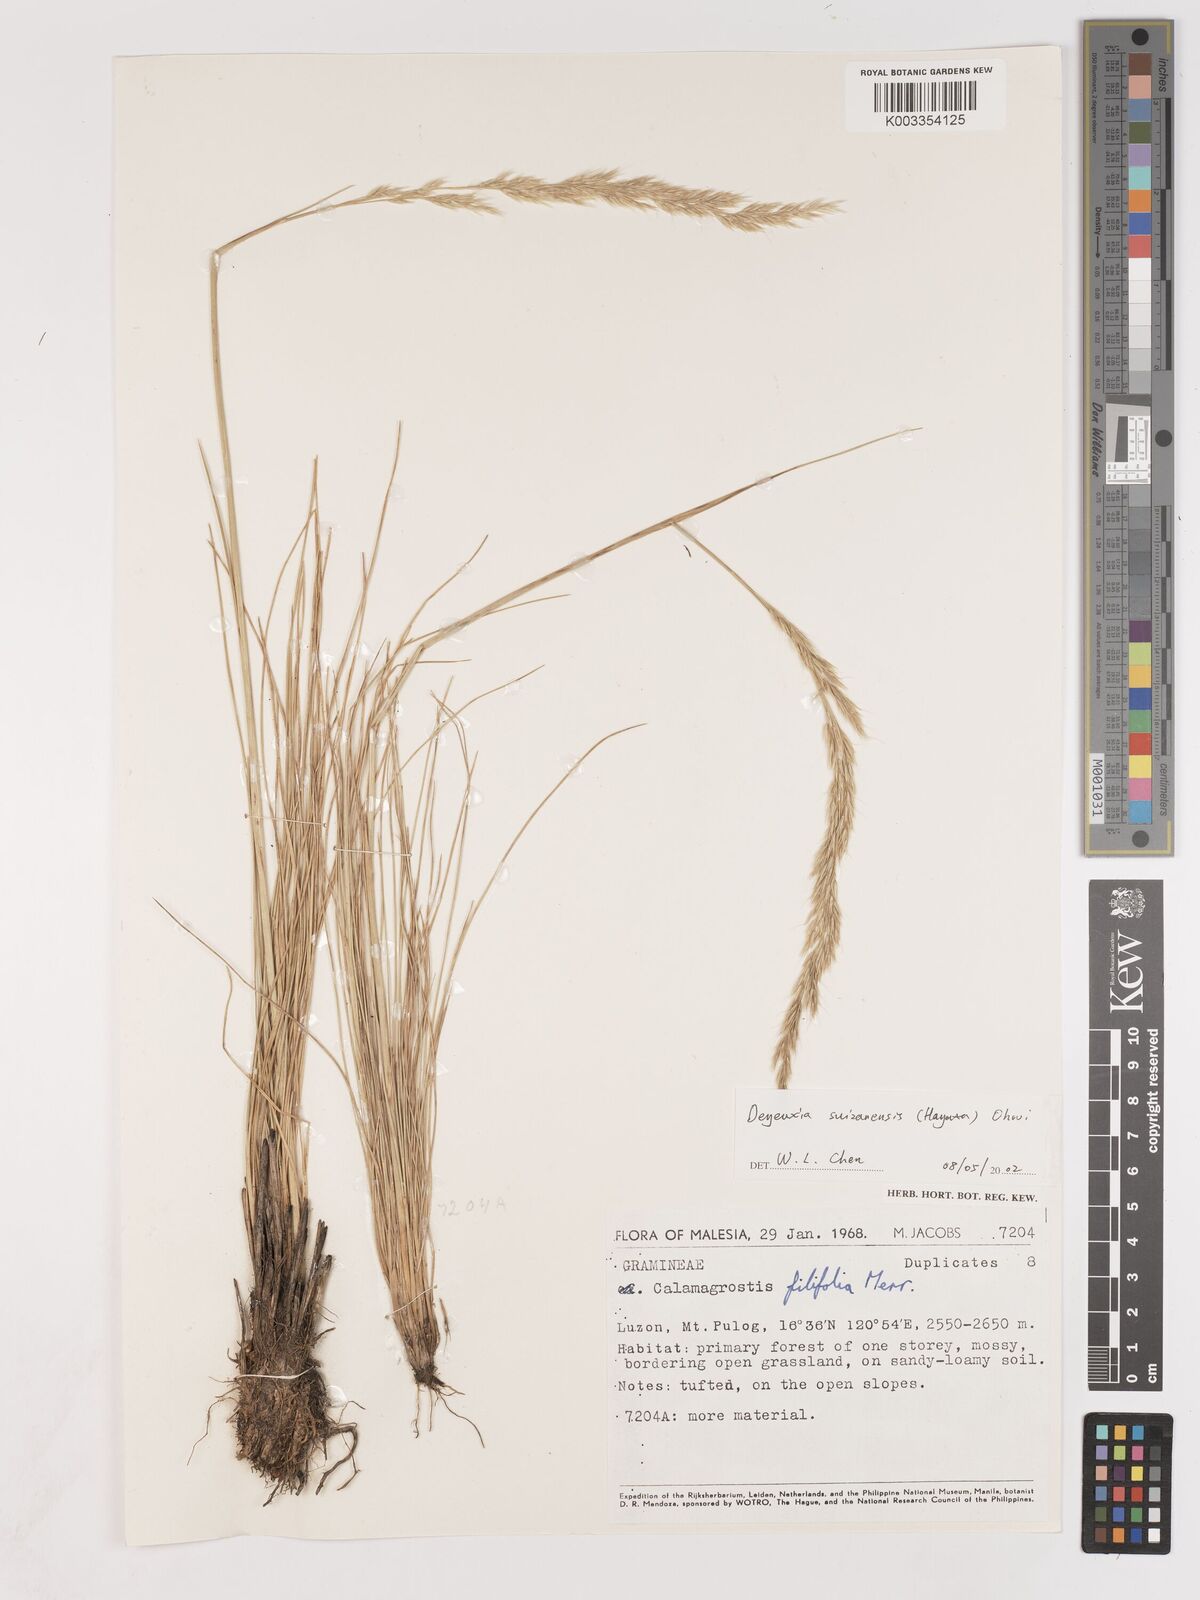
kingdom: Plantae
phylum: Tracheophyta
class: Liliopsida
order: Poales
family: Poaceae
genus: Calamagrostis
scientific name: Calamagrostis filifolia
